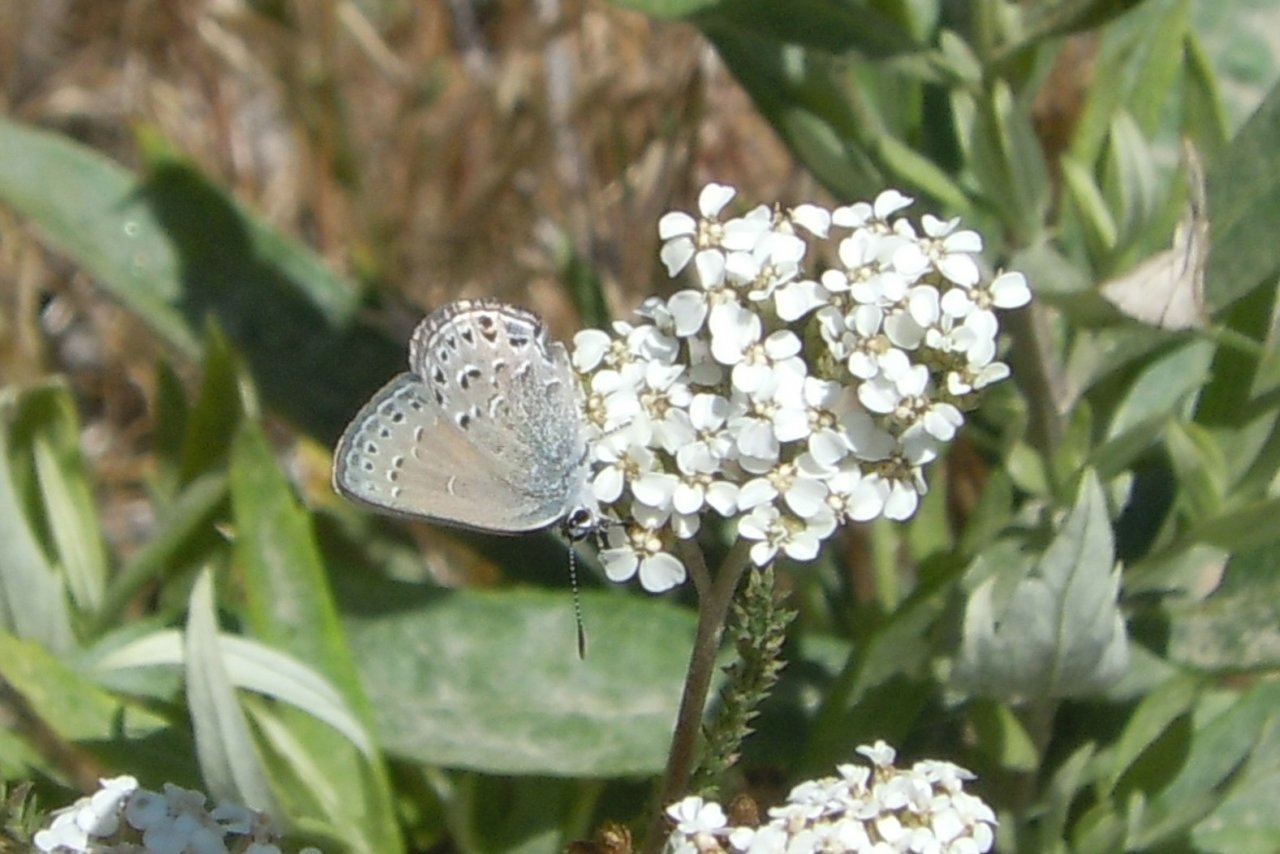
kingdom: Animalia
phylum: Arthropoda
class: Insecta
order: Lepidoptera
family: Lycaenidae
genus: Satyrium
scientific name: Satyrium behrii
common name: Behr's Hairstreak
